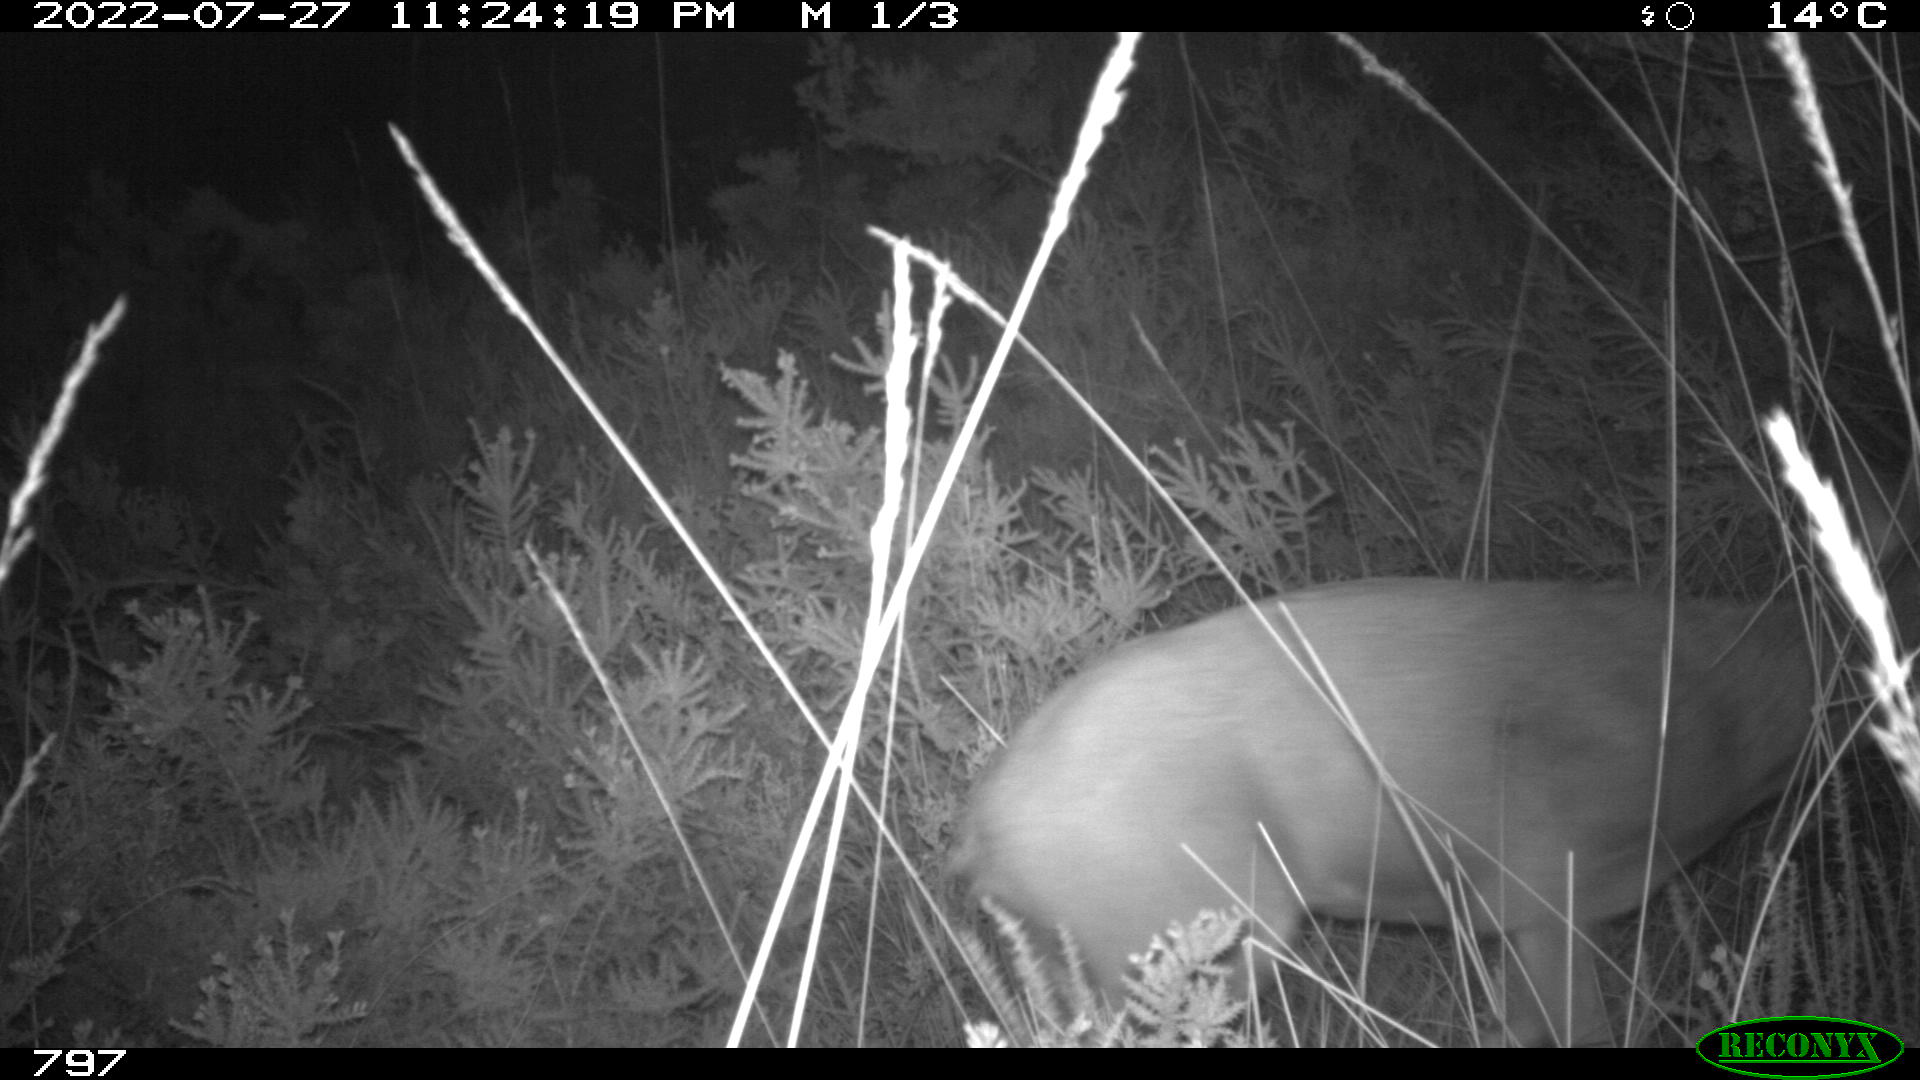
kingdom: Animalia
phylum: Chordata
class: Mammalia
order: Artiodactyla
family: Cervidae
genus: Capreolus
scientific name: Capreolus capreolus
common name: Western roe deer
